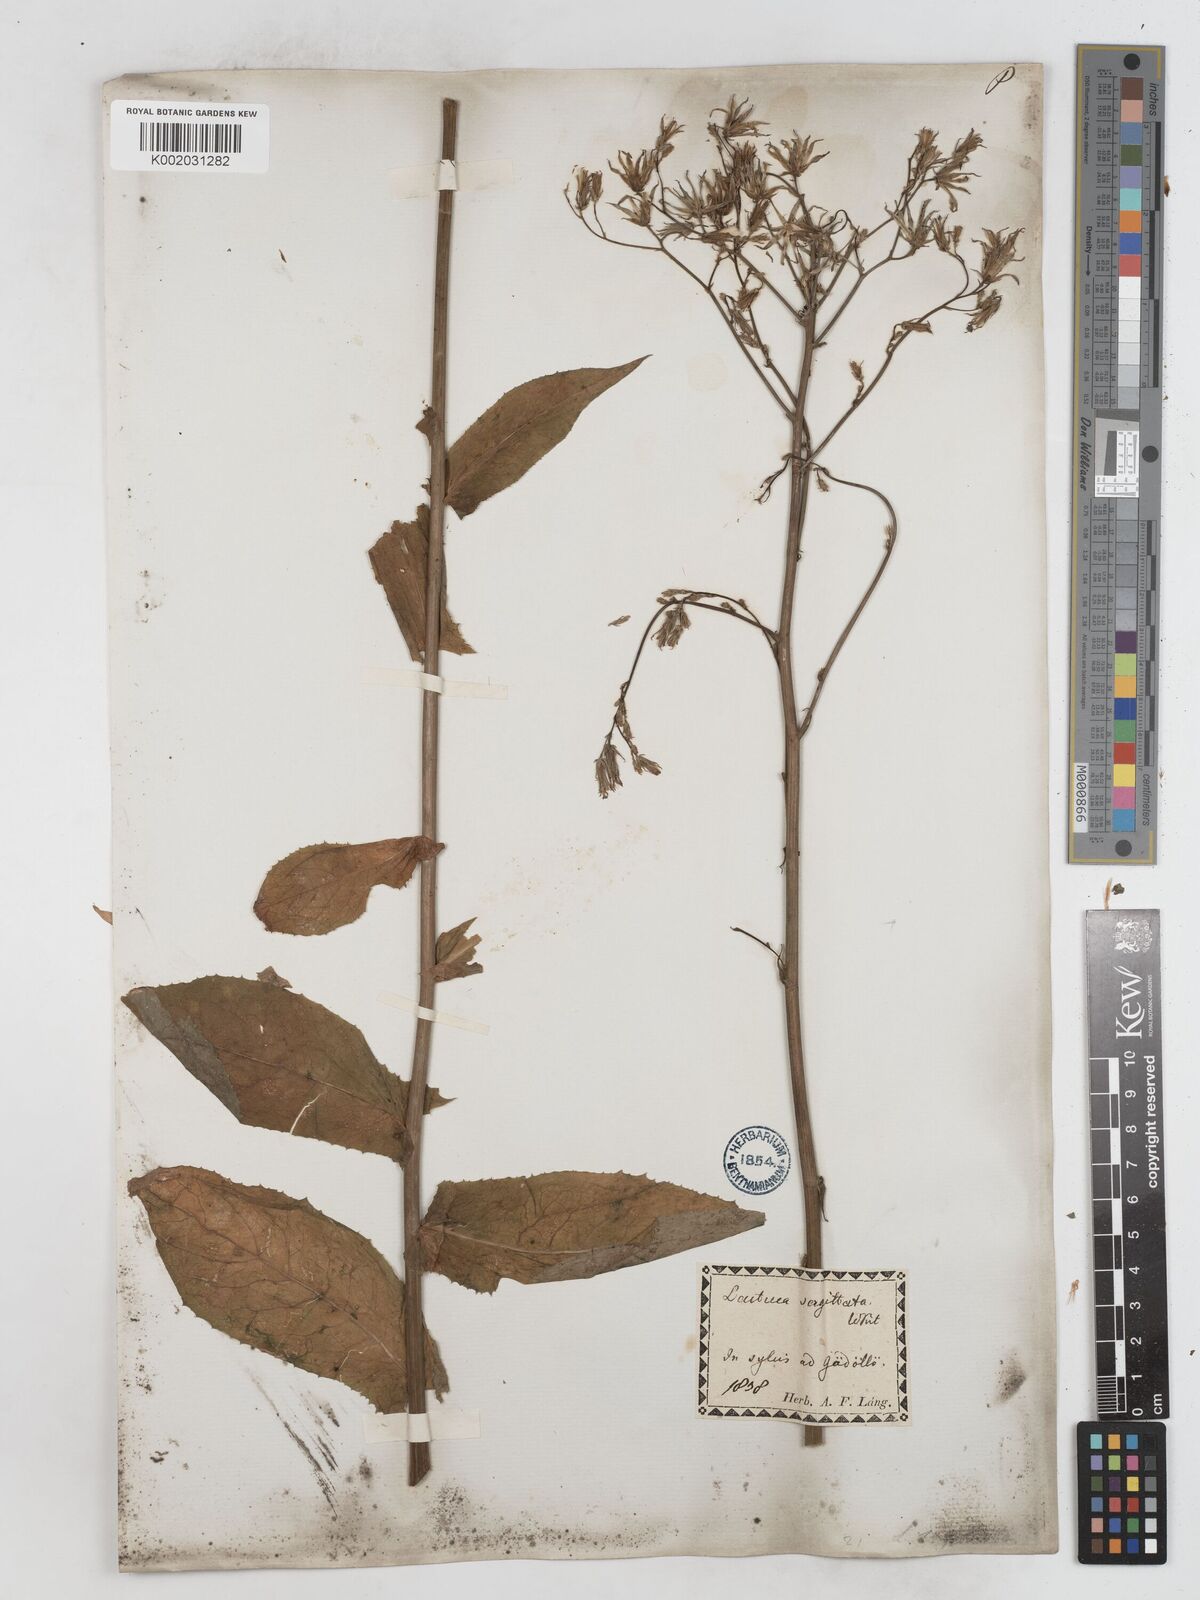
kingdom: Plantae
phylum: Tracheophyta
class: Magnoliopsida
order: Asterales
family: Asteraceae
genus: Lactuca
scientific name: Lactuca quercina
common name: Wild lettuce
